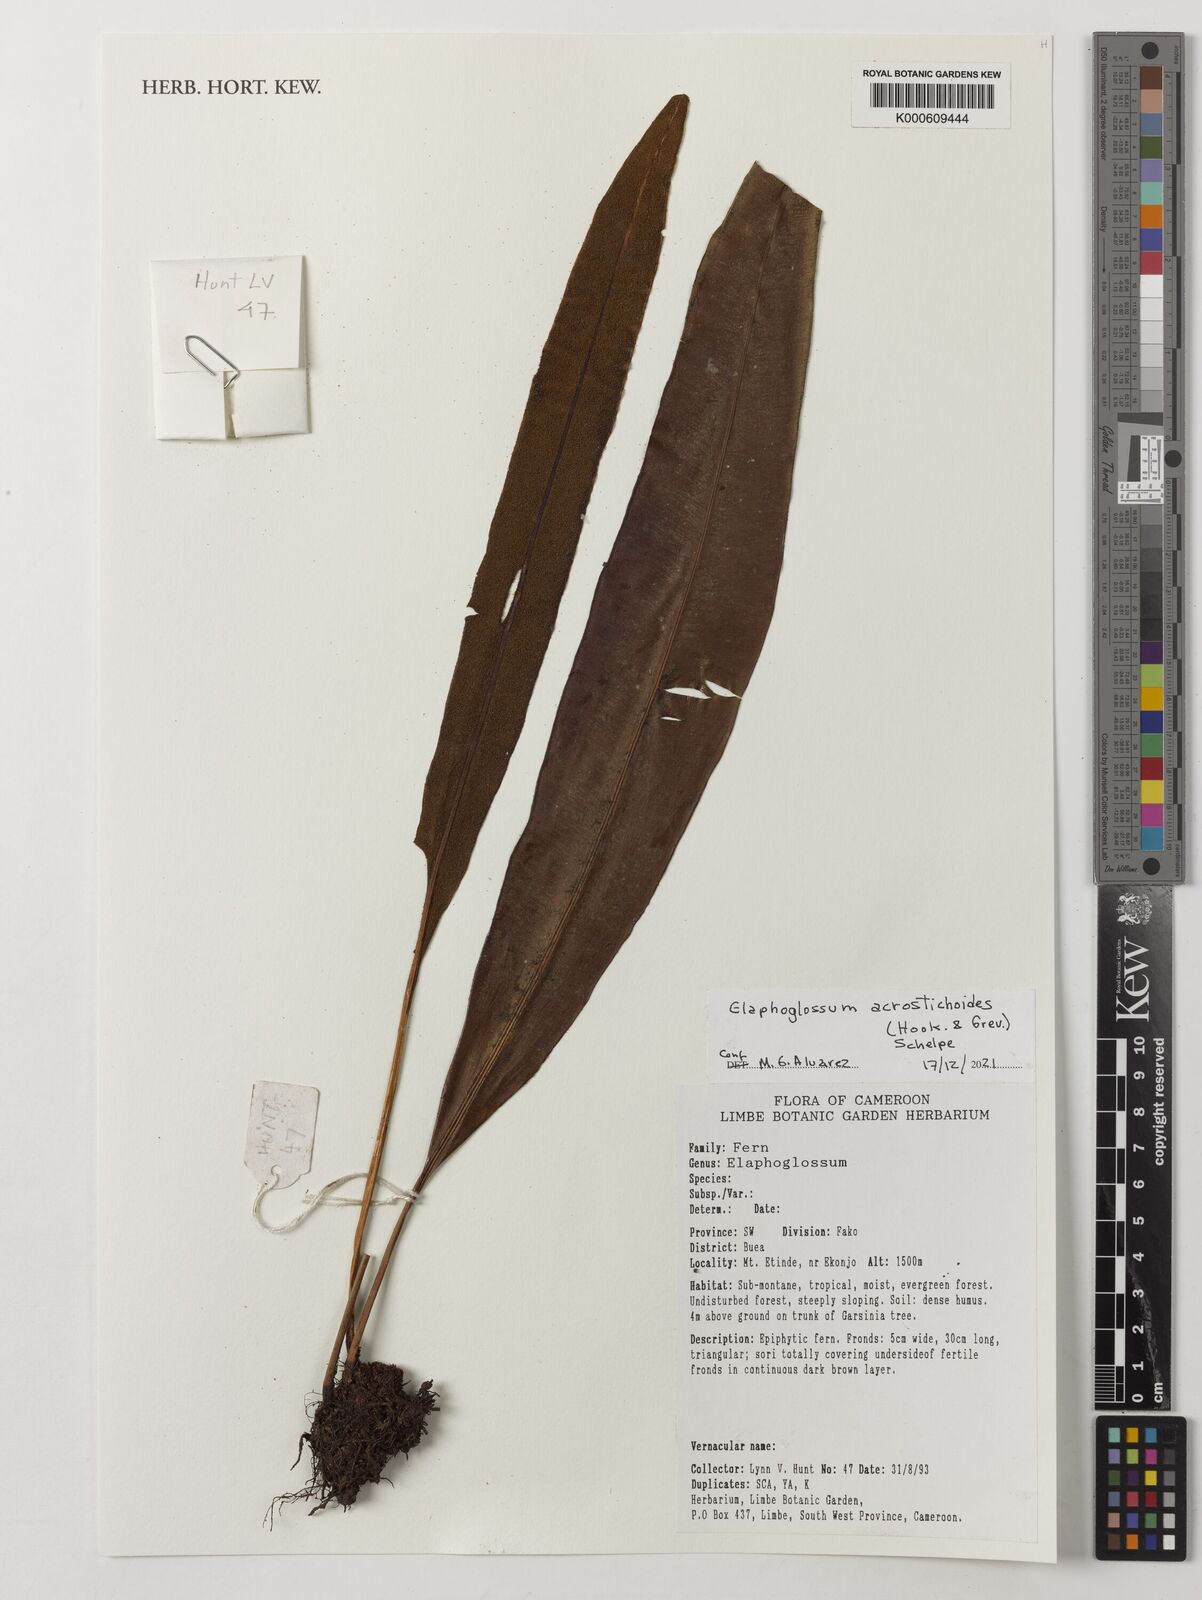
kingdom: Plantae
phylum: Tracheophyta
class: Polypodiopsida
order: Polypodiales
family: Dryopteridaceae
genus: Elaphoglossum
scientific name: Elaphoglossum acrostichoides
